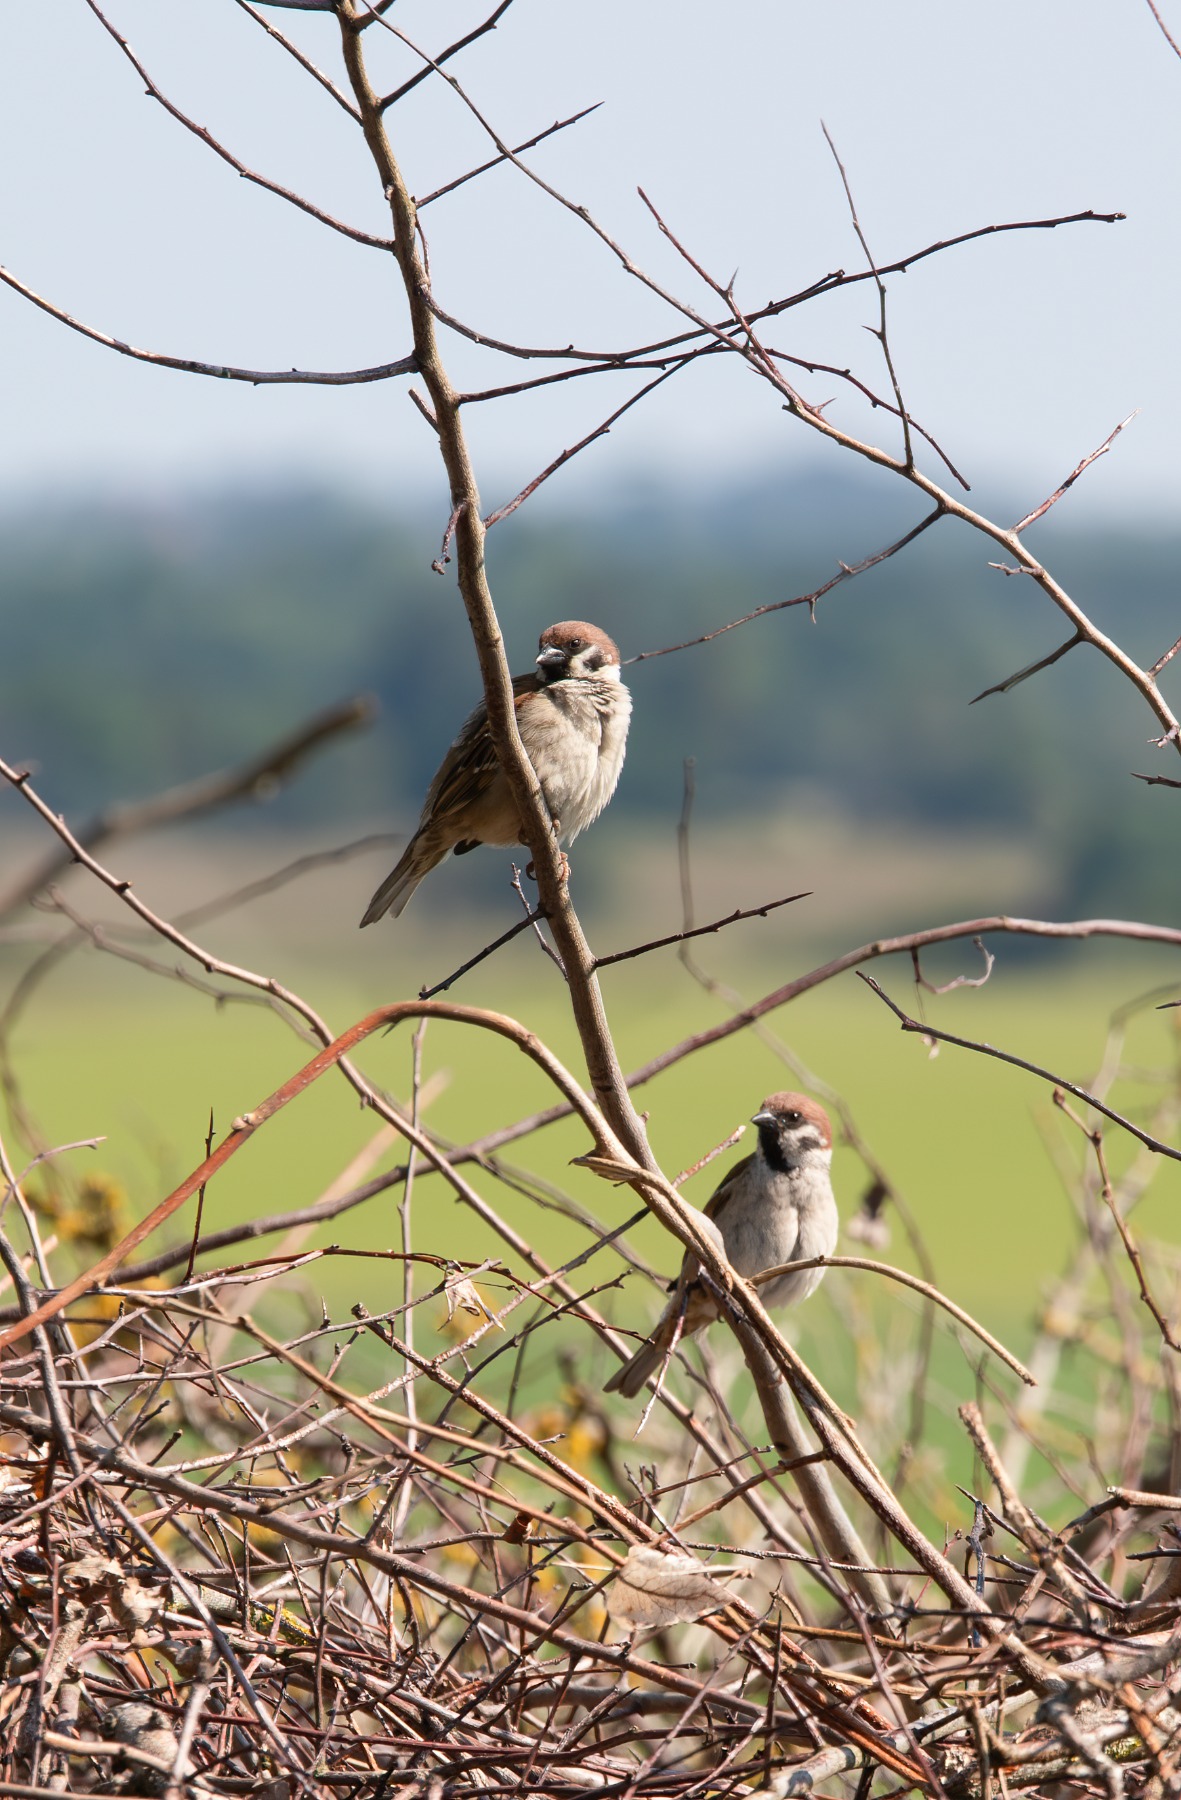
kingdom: Animalia
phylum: Chordata
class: Aves
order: Passeriformes
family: Passeridae
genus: Passer
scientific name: Passer montanus
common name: Skovspurv
